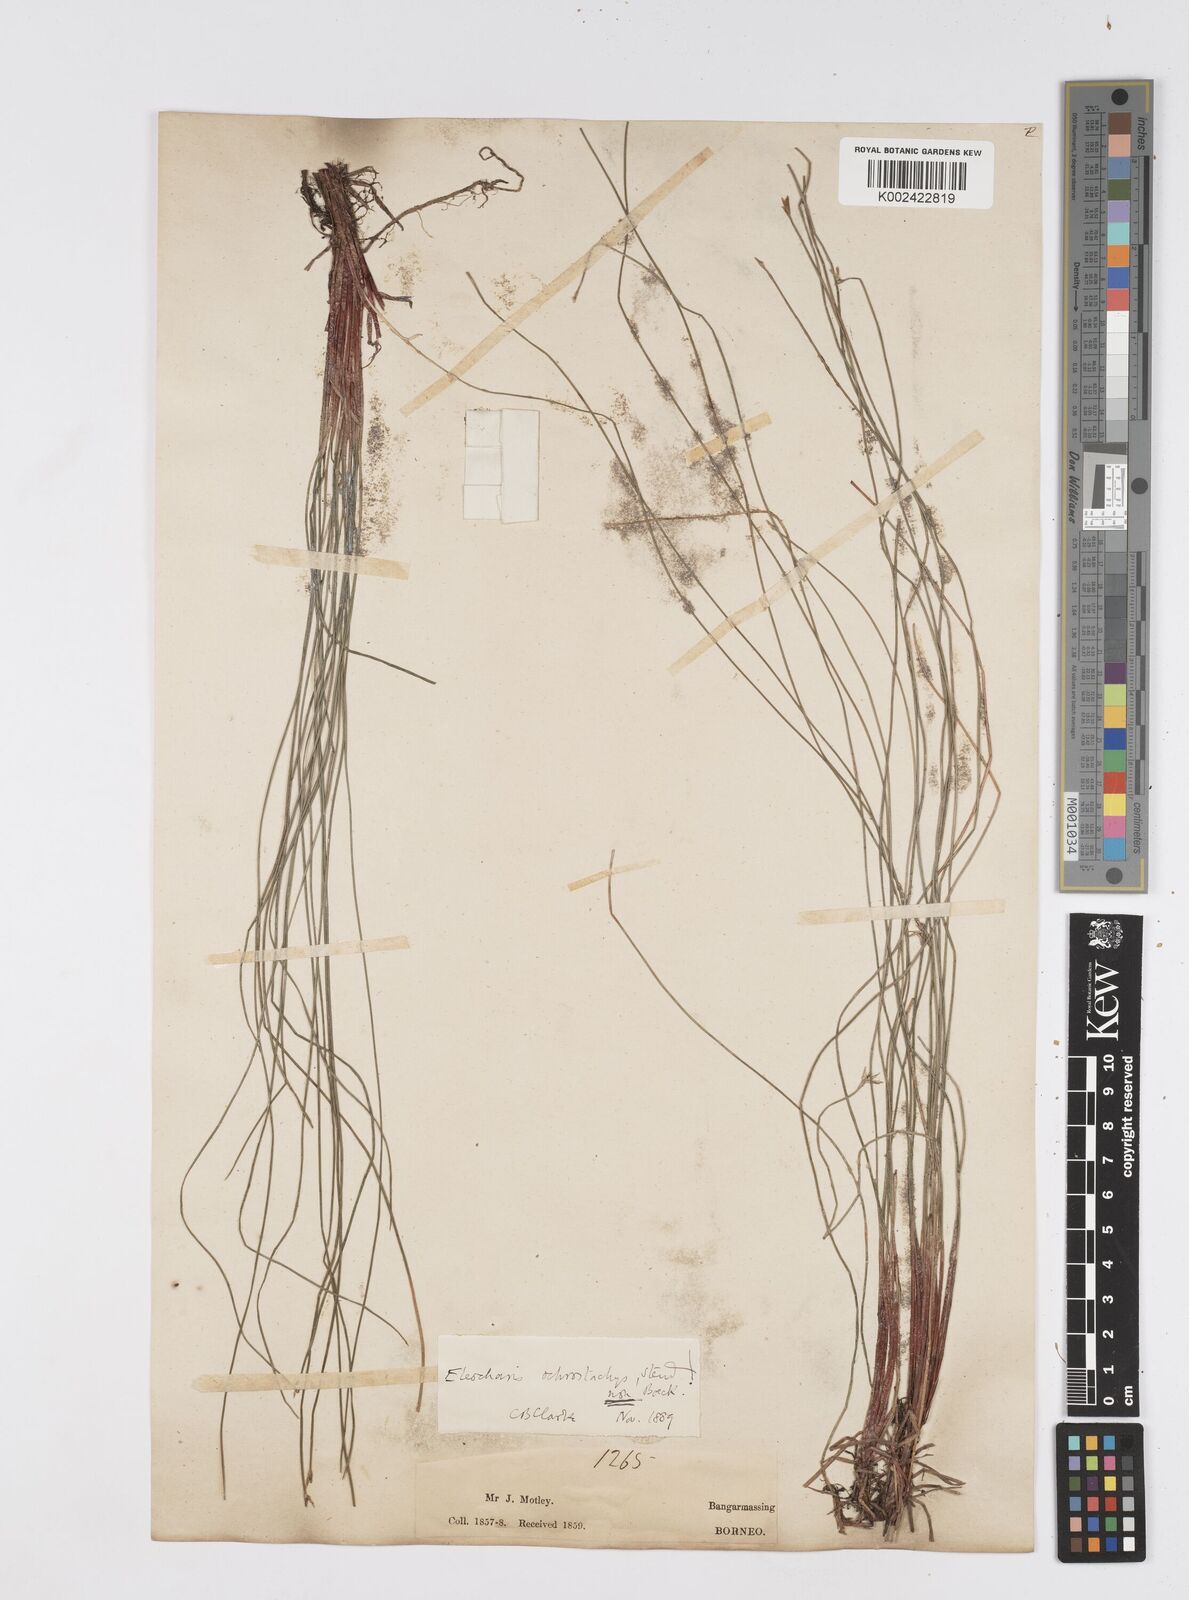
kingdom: Plantae
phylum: Tracheophyta
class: Liliopsida
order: Poales
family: Cyperaceae
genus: Eleocharis
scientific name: Eleocharis ochrostachys
